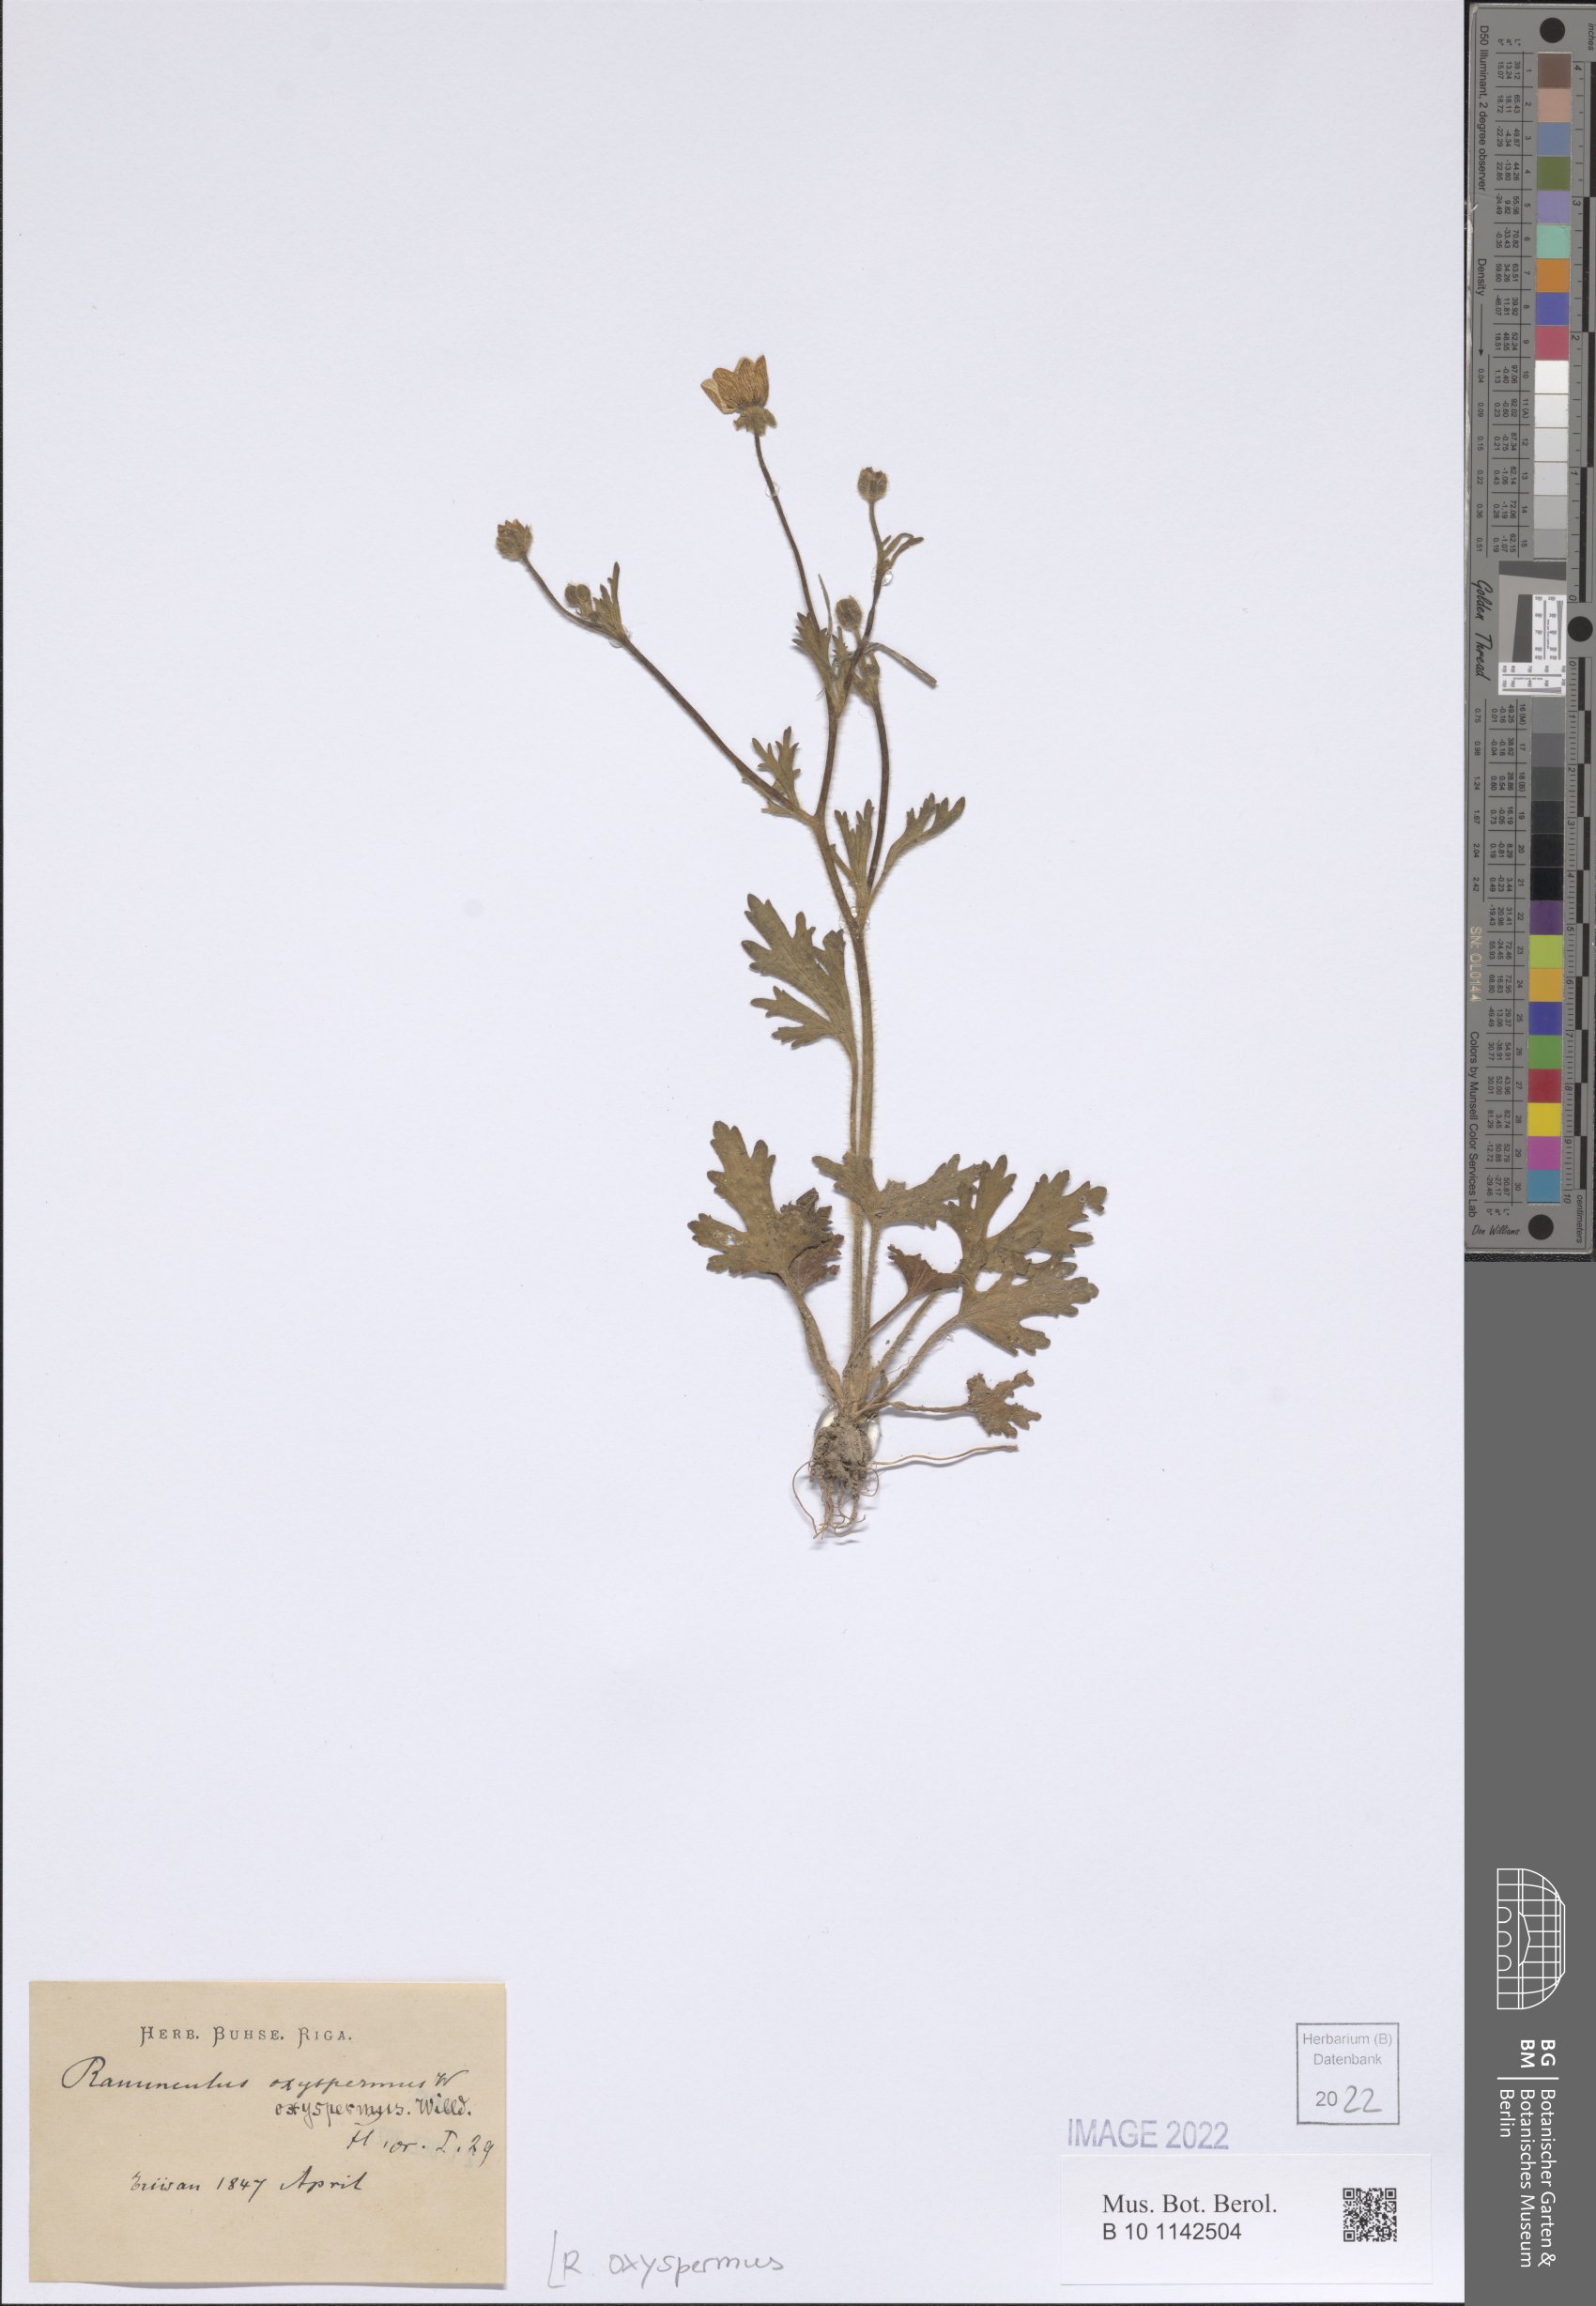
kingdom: Plantae
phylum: Tracheophyta
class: Magnoliopsida
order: Ranunculales
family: Ranunculaceae
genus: Ranunculus
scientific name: Ranunculus oxyspermus
